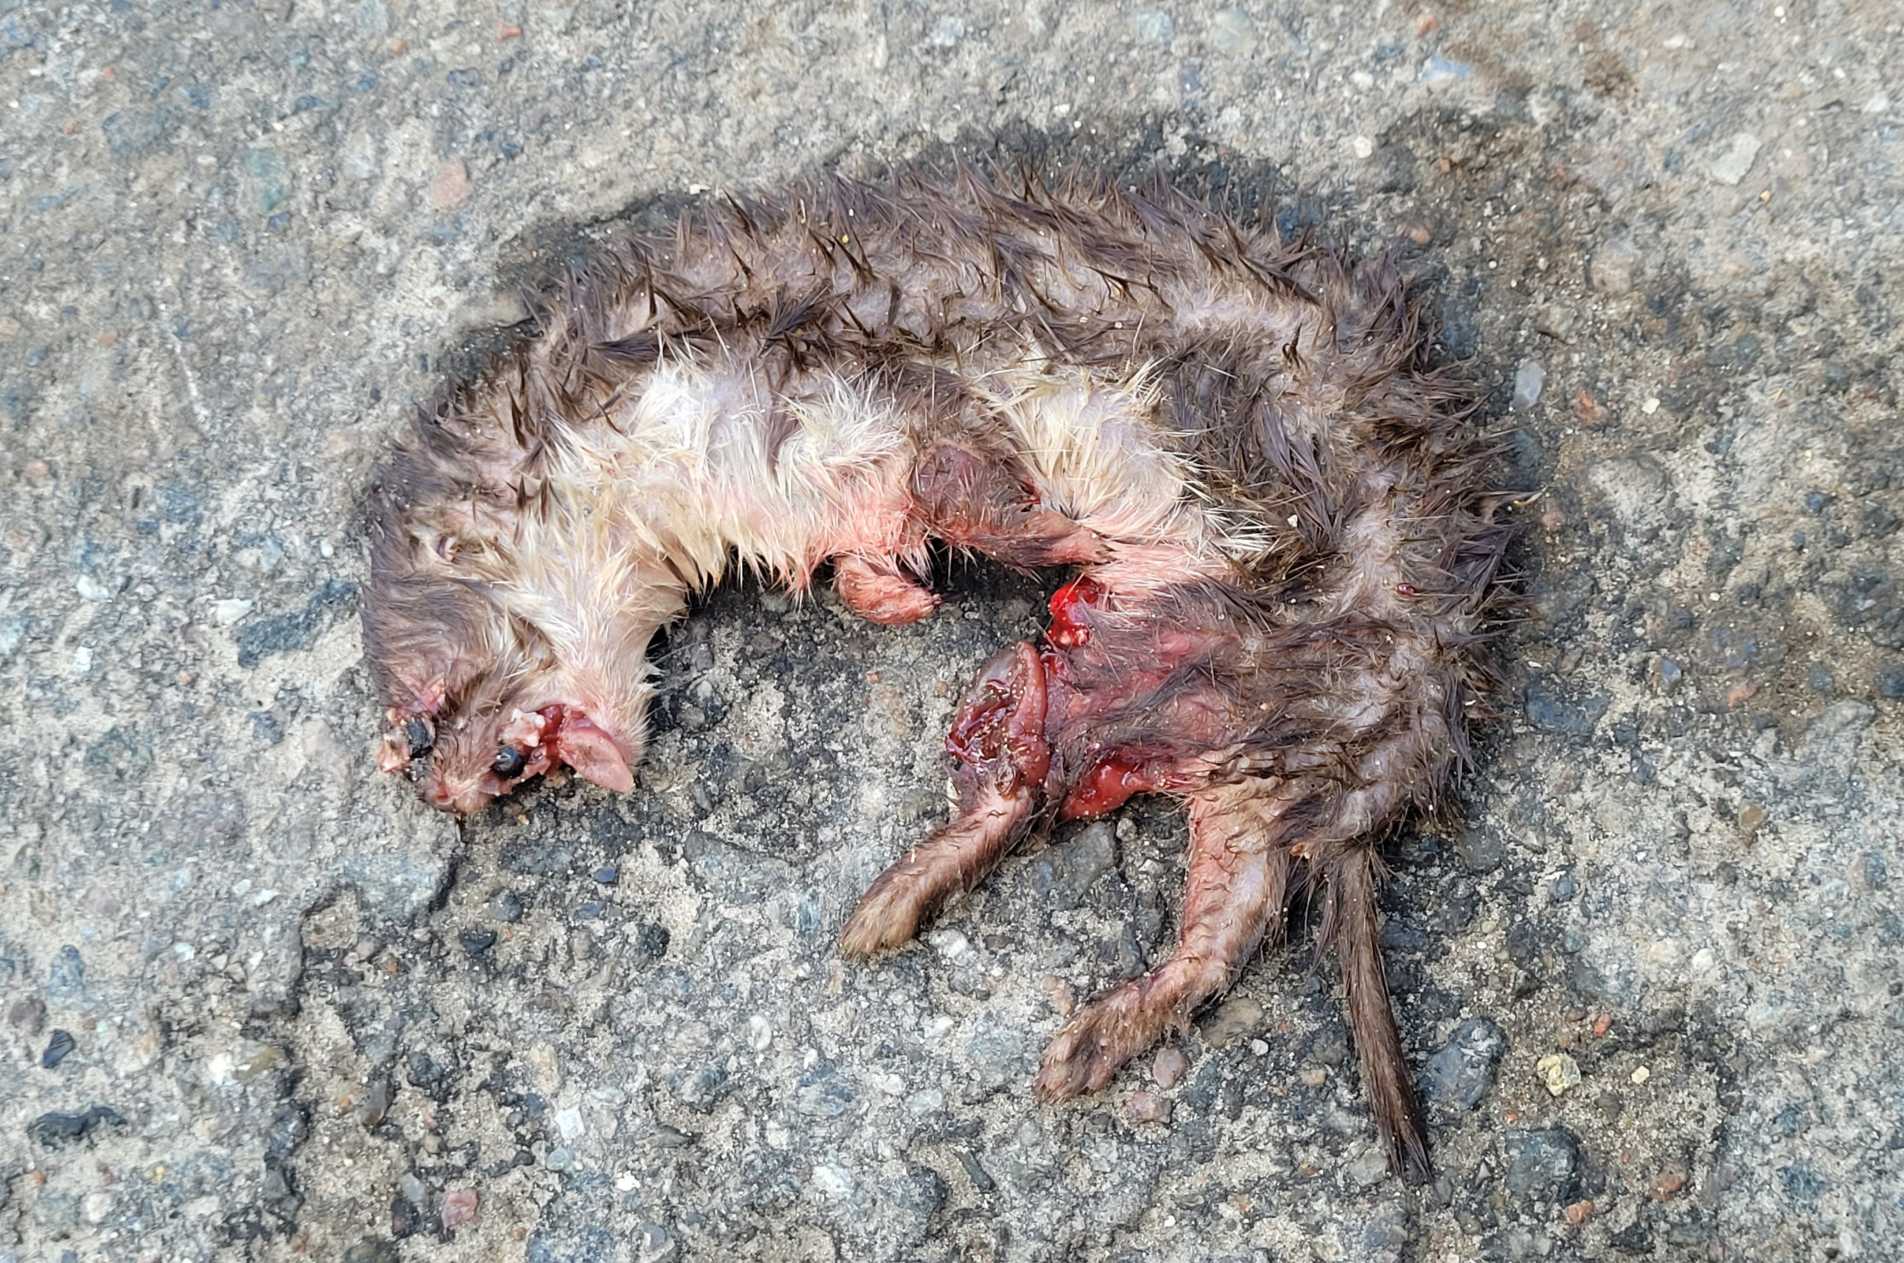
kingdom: Animalia
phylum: Chordata
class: Mammalia
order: Carnivora
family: Mustelidae
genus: Mustela
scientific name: Mustela nivalis
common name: Brud
